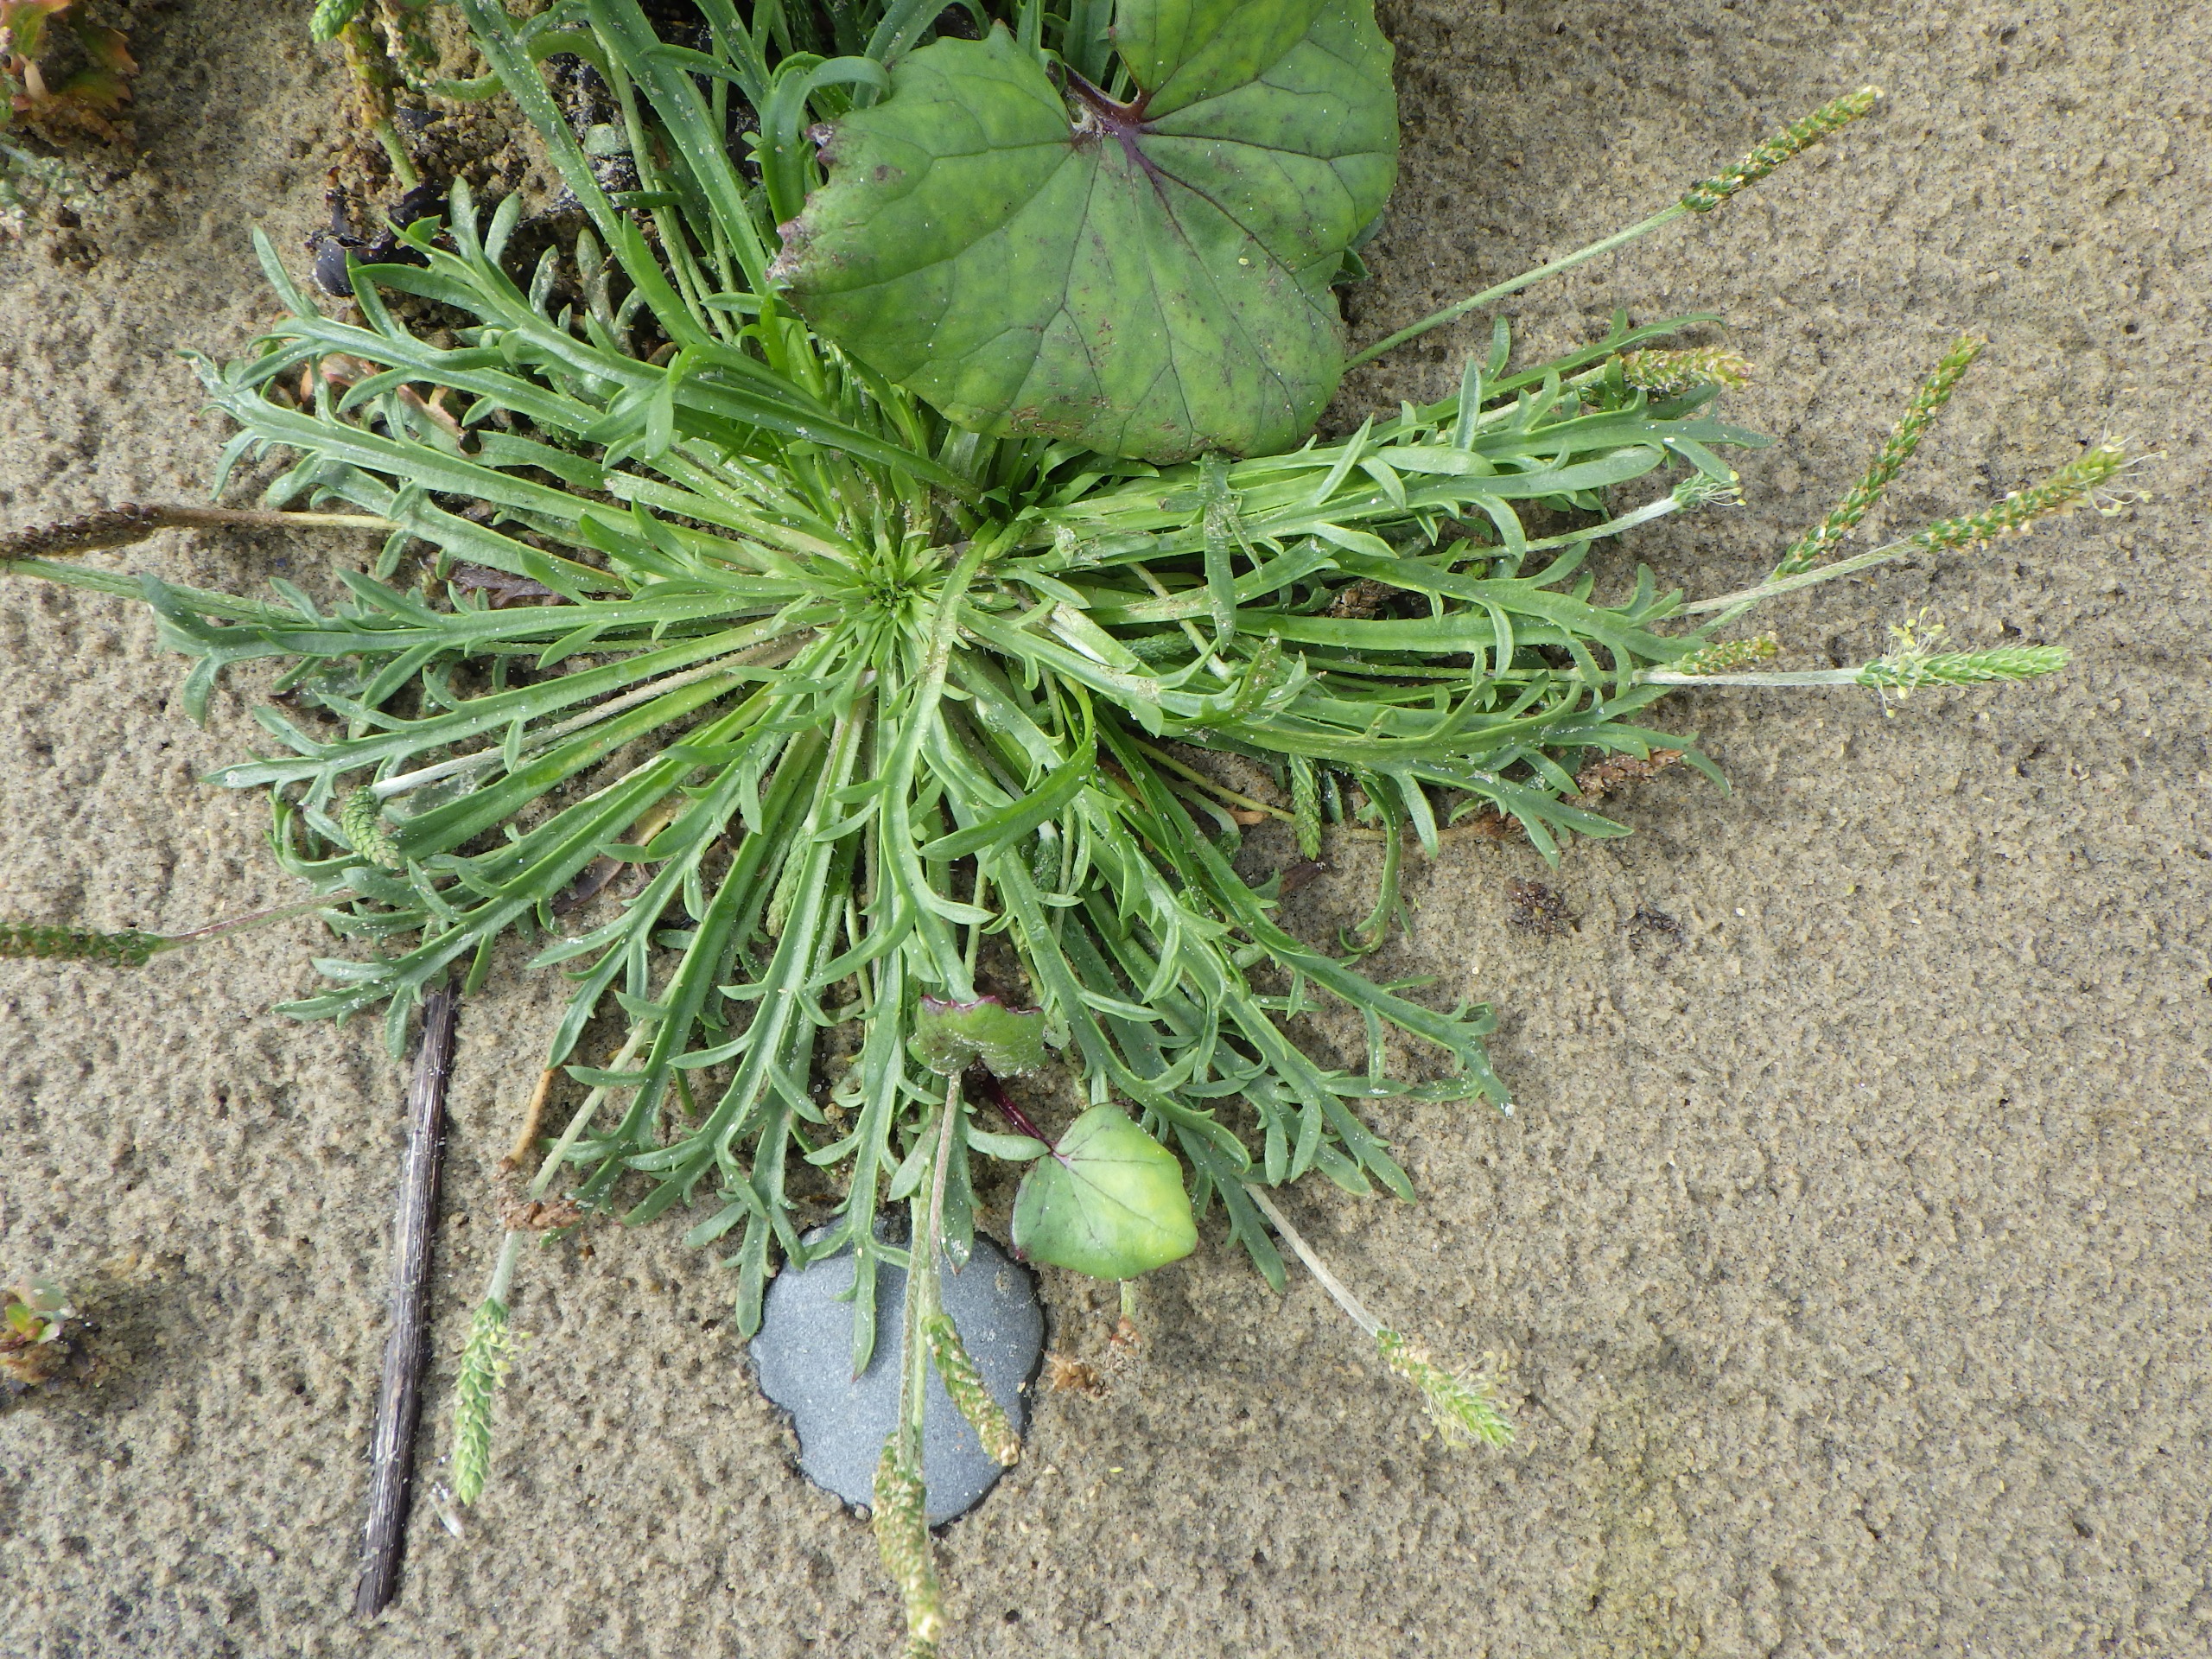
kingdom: Plantae
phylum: Tracheophyta
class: Magnoliopsida
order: Lamiales
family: Plantaginaceae
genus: Plantago
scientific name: Plantago coronopus
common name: Fliget vejbred
